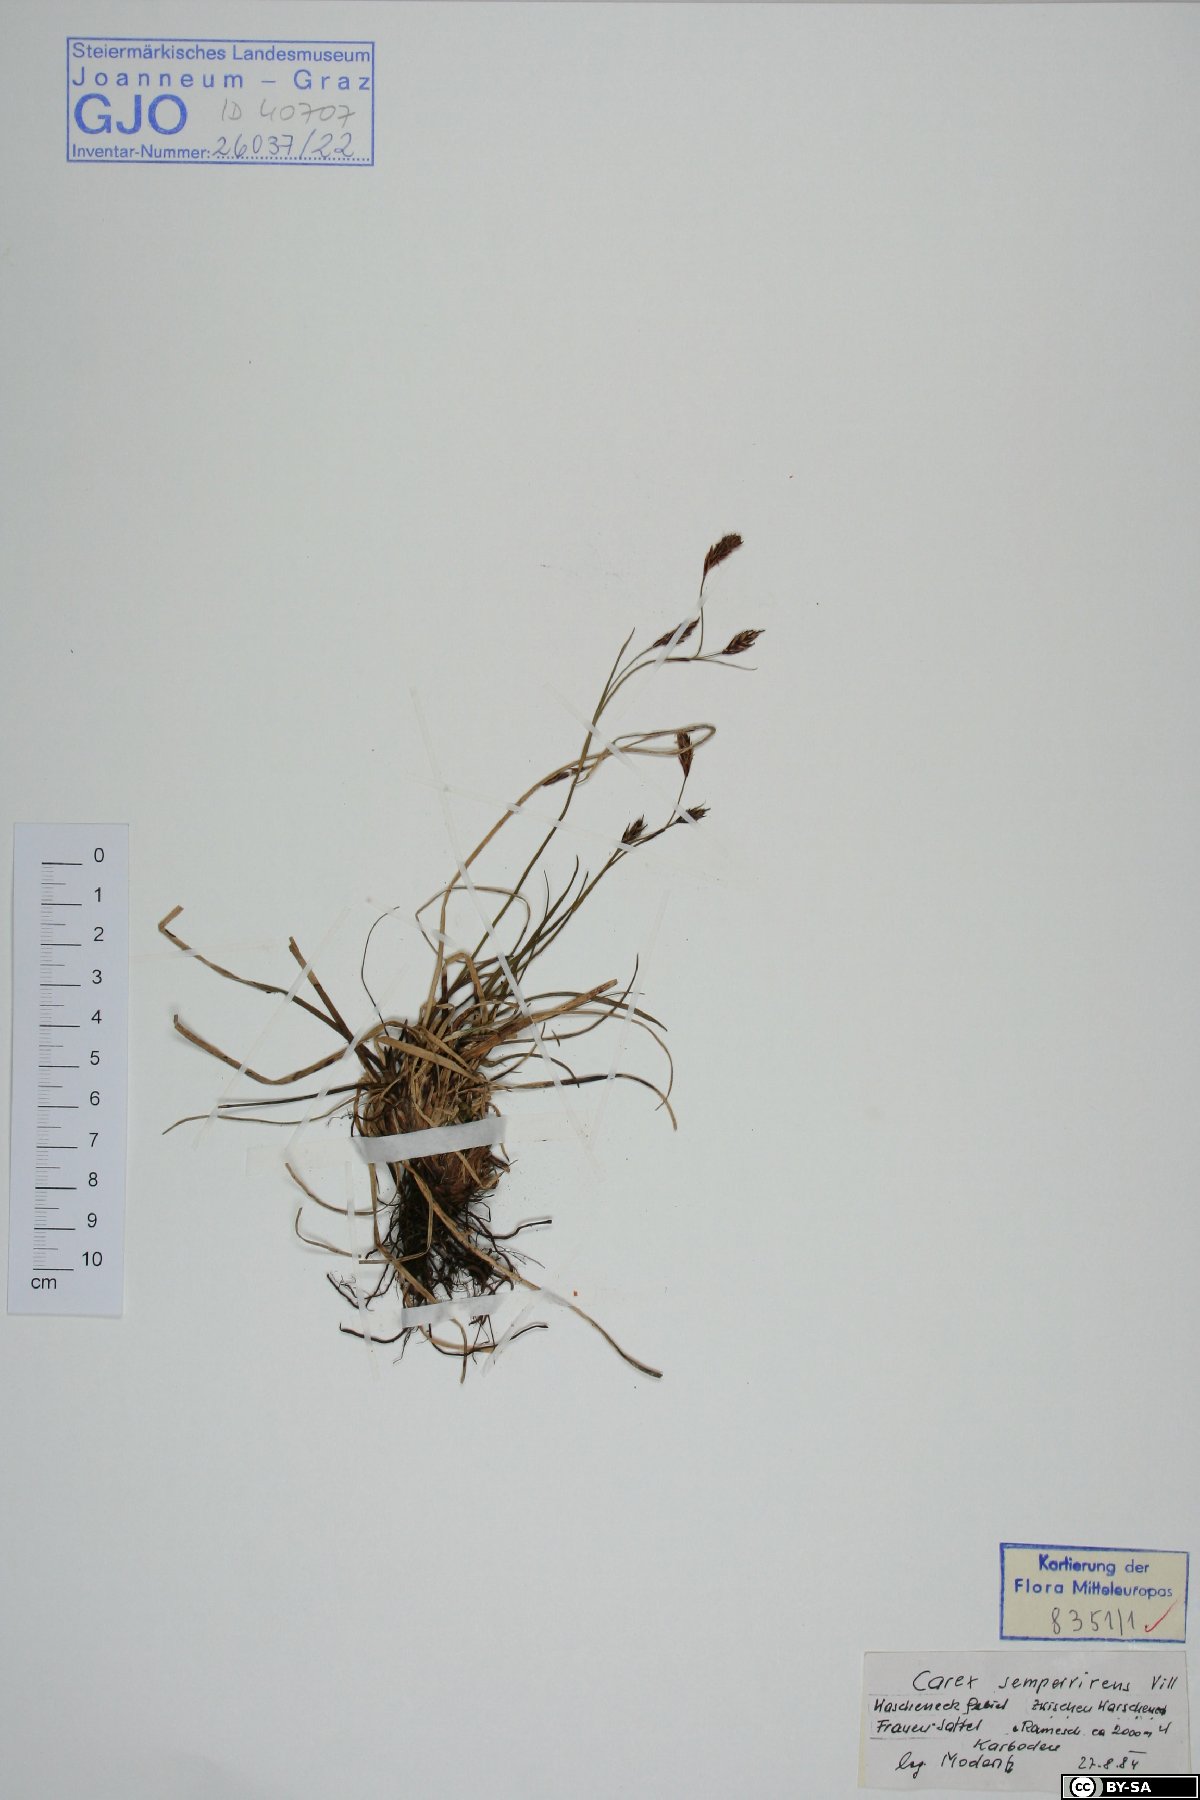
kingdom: Plantae
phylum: Tracheophyta
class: Liliopsida
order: Poales
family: Cyperaceae
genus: Carex
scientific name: Carex sempervirens
